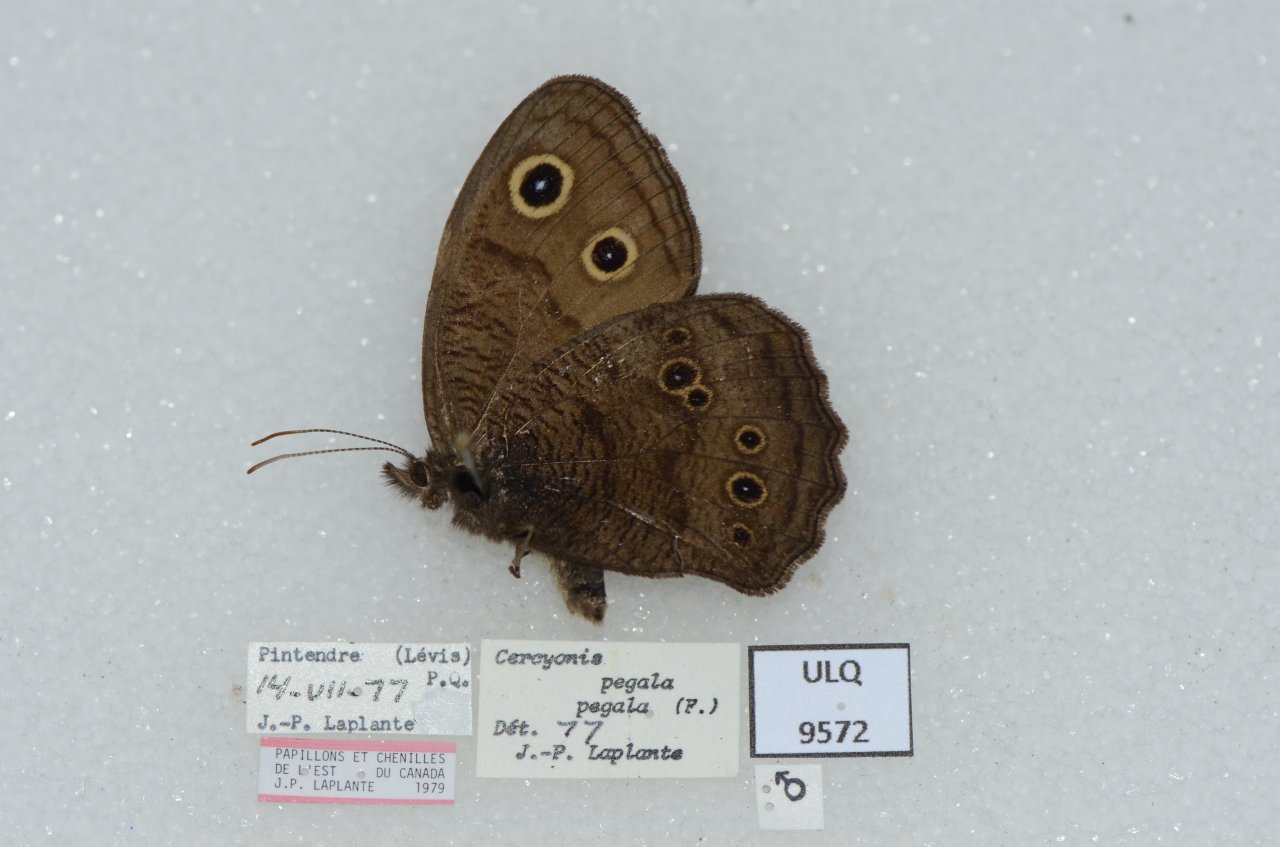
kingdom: Animalia
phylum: Arthropoda
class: Insecta
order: Lepidoptera
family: Nymphalidae
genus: Cercyonis
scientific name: Cercyonis pegala
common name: Common Wood-Nymph
